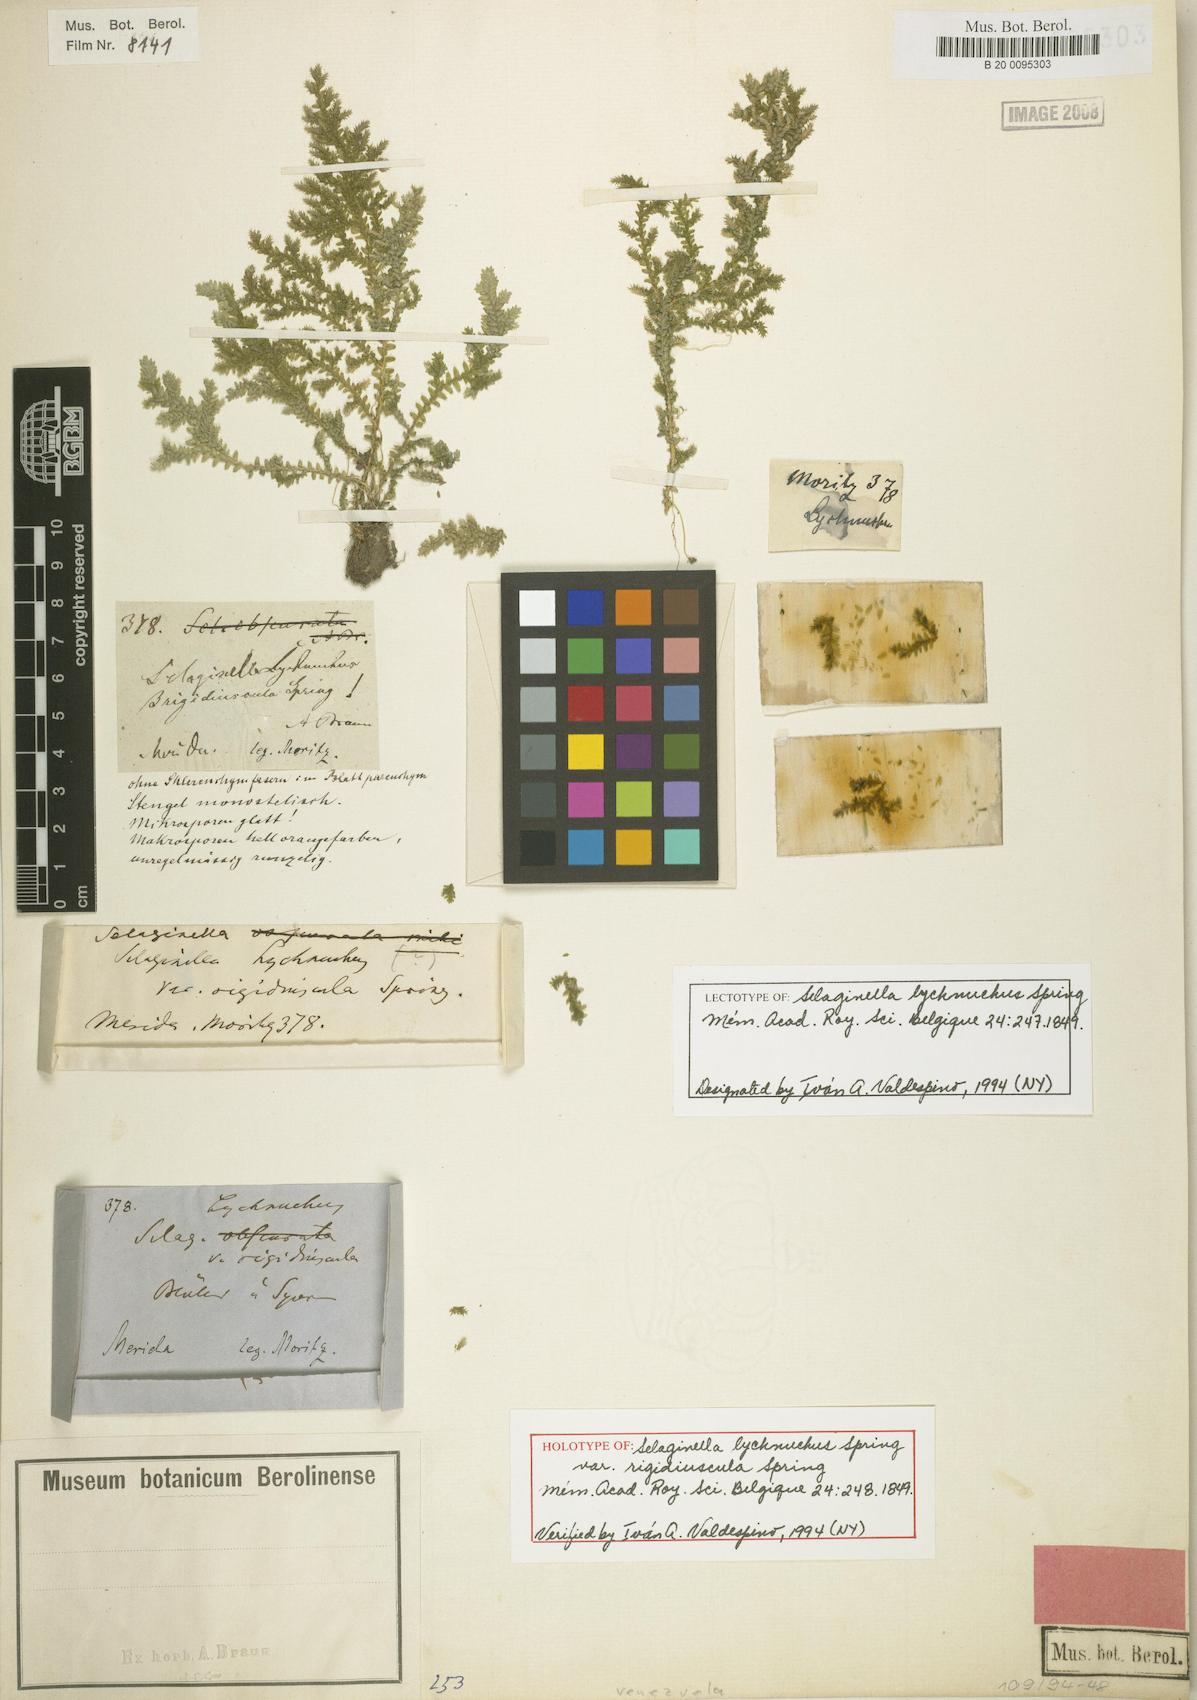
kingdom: Plantae
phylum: Tracheophyta
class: Lycopodiopsida
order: Selaginellales
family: Selaginellaceae
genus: Selaginella
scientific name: Selaginella lychnuchus
